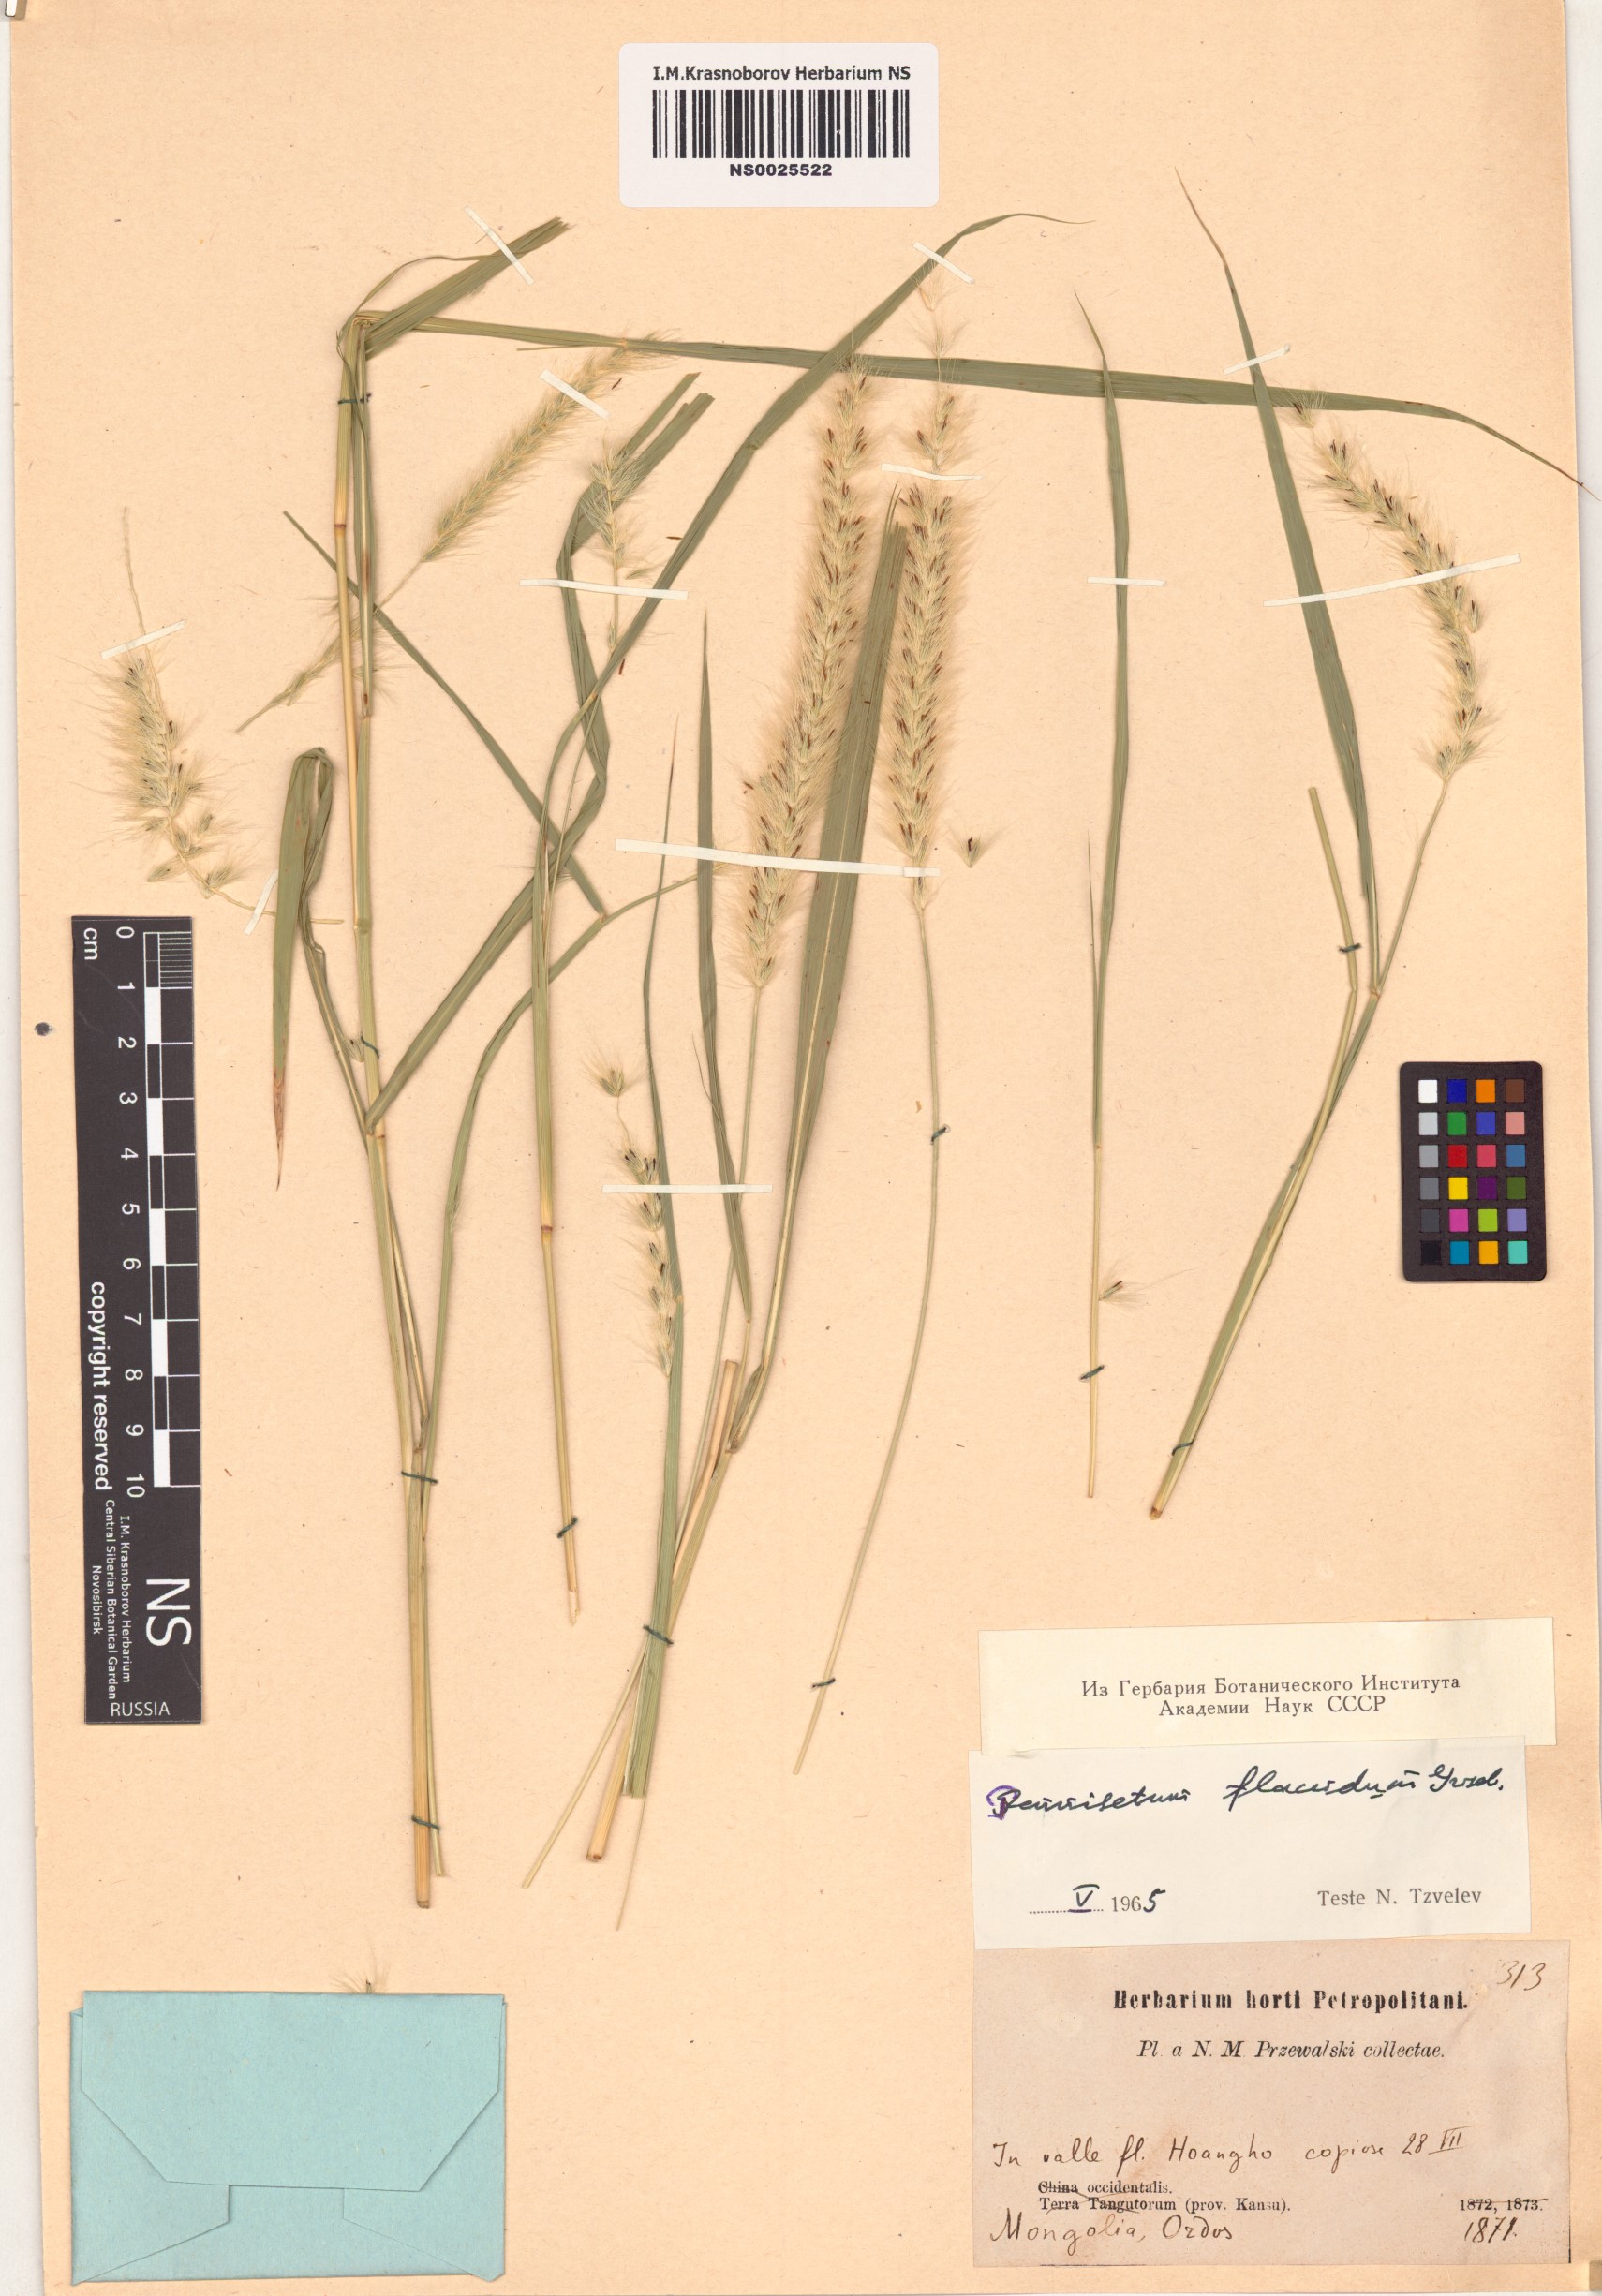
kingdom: Plantae
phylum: Tracheophyta
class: Liliopsida
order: Poales
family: Poaceae
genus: Cenchrus
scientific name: Cenchrus flaccidus
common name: Flaccid grass
